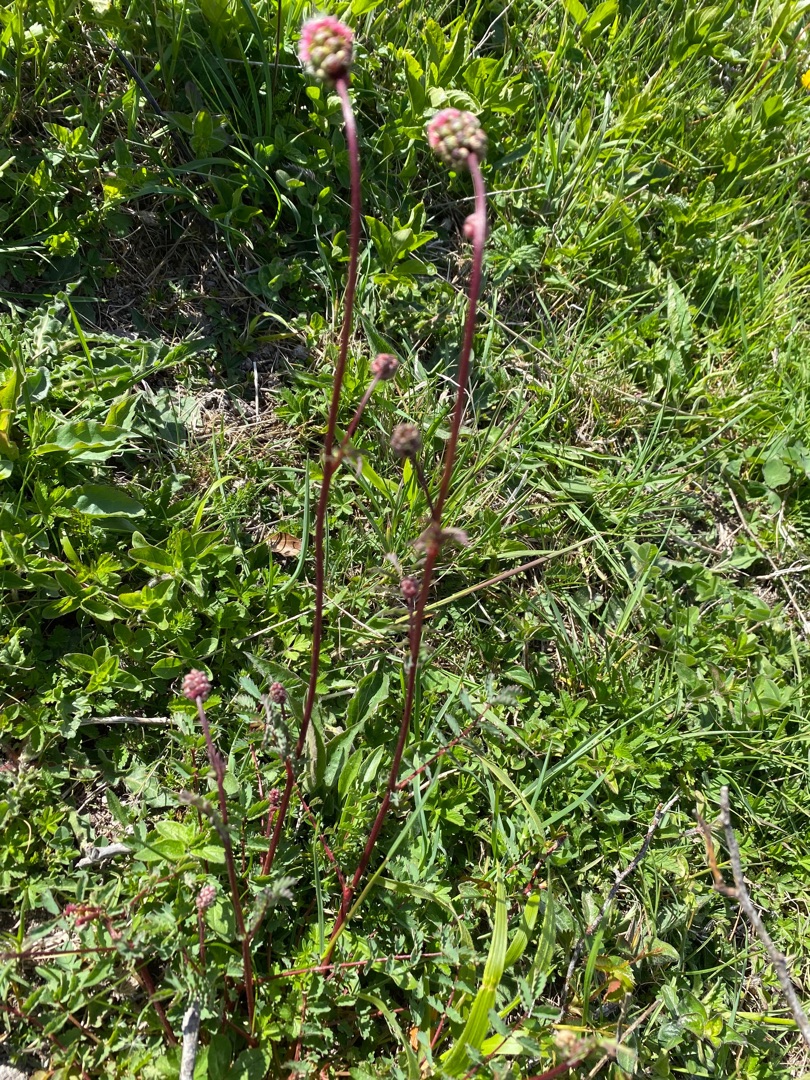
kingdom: Plantae
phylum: Tracheophyta
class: Magnoliopsida
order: Rosales
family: Rosaceae
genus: Poterium
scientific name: Poterium sanguisorba
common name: Bibernelle
